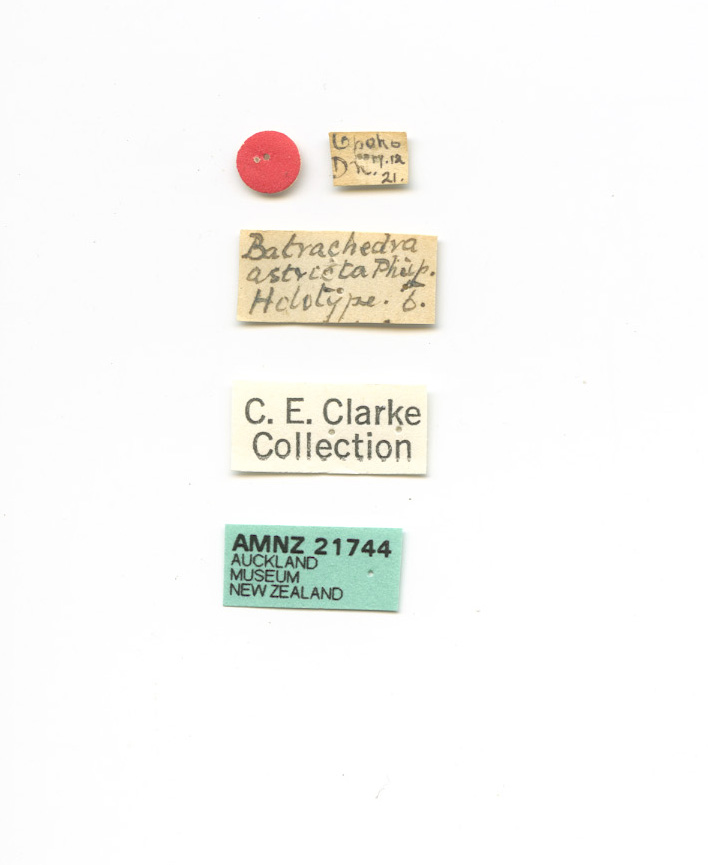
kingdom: Animalia
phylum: Arthropoda
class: Insecta
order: Lepidoptera
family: Batrachedridae
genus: Batrachedra
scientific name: Batrachedra astricta
